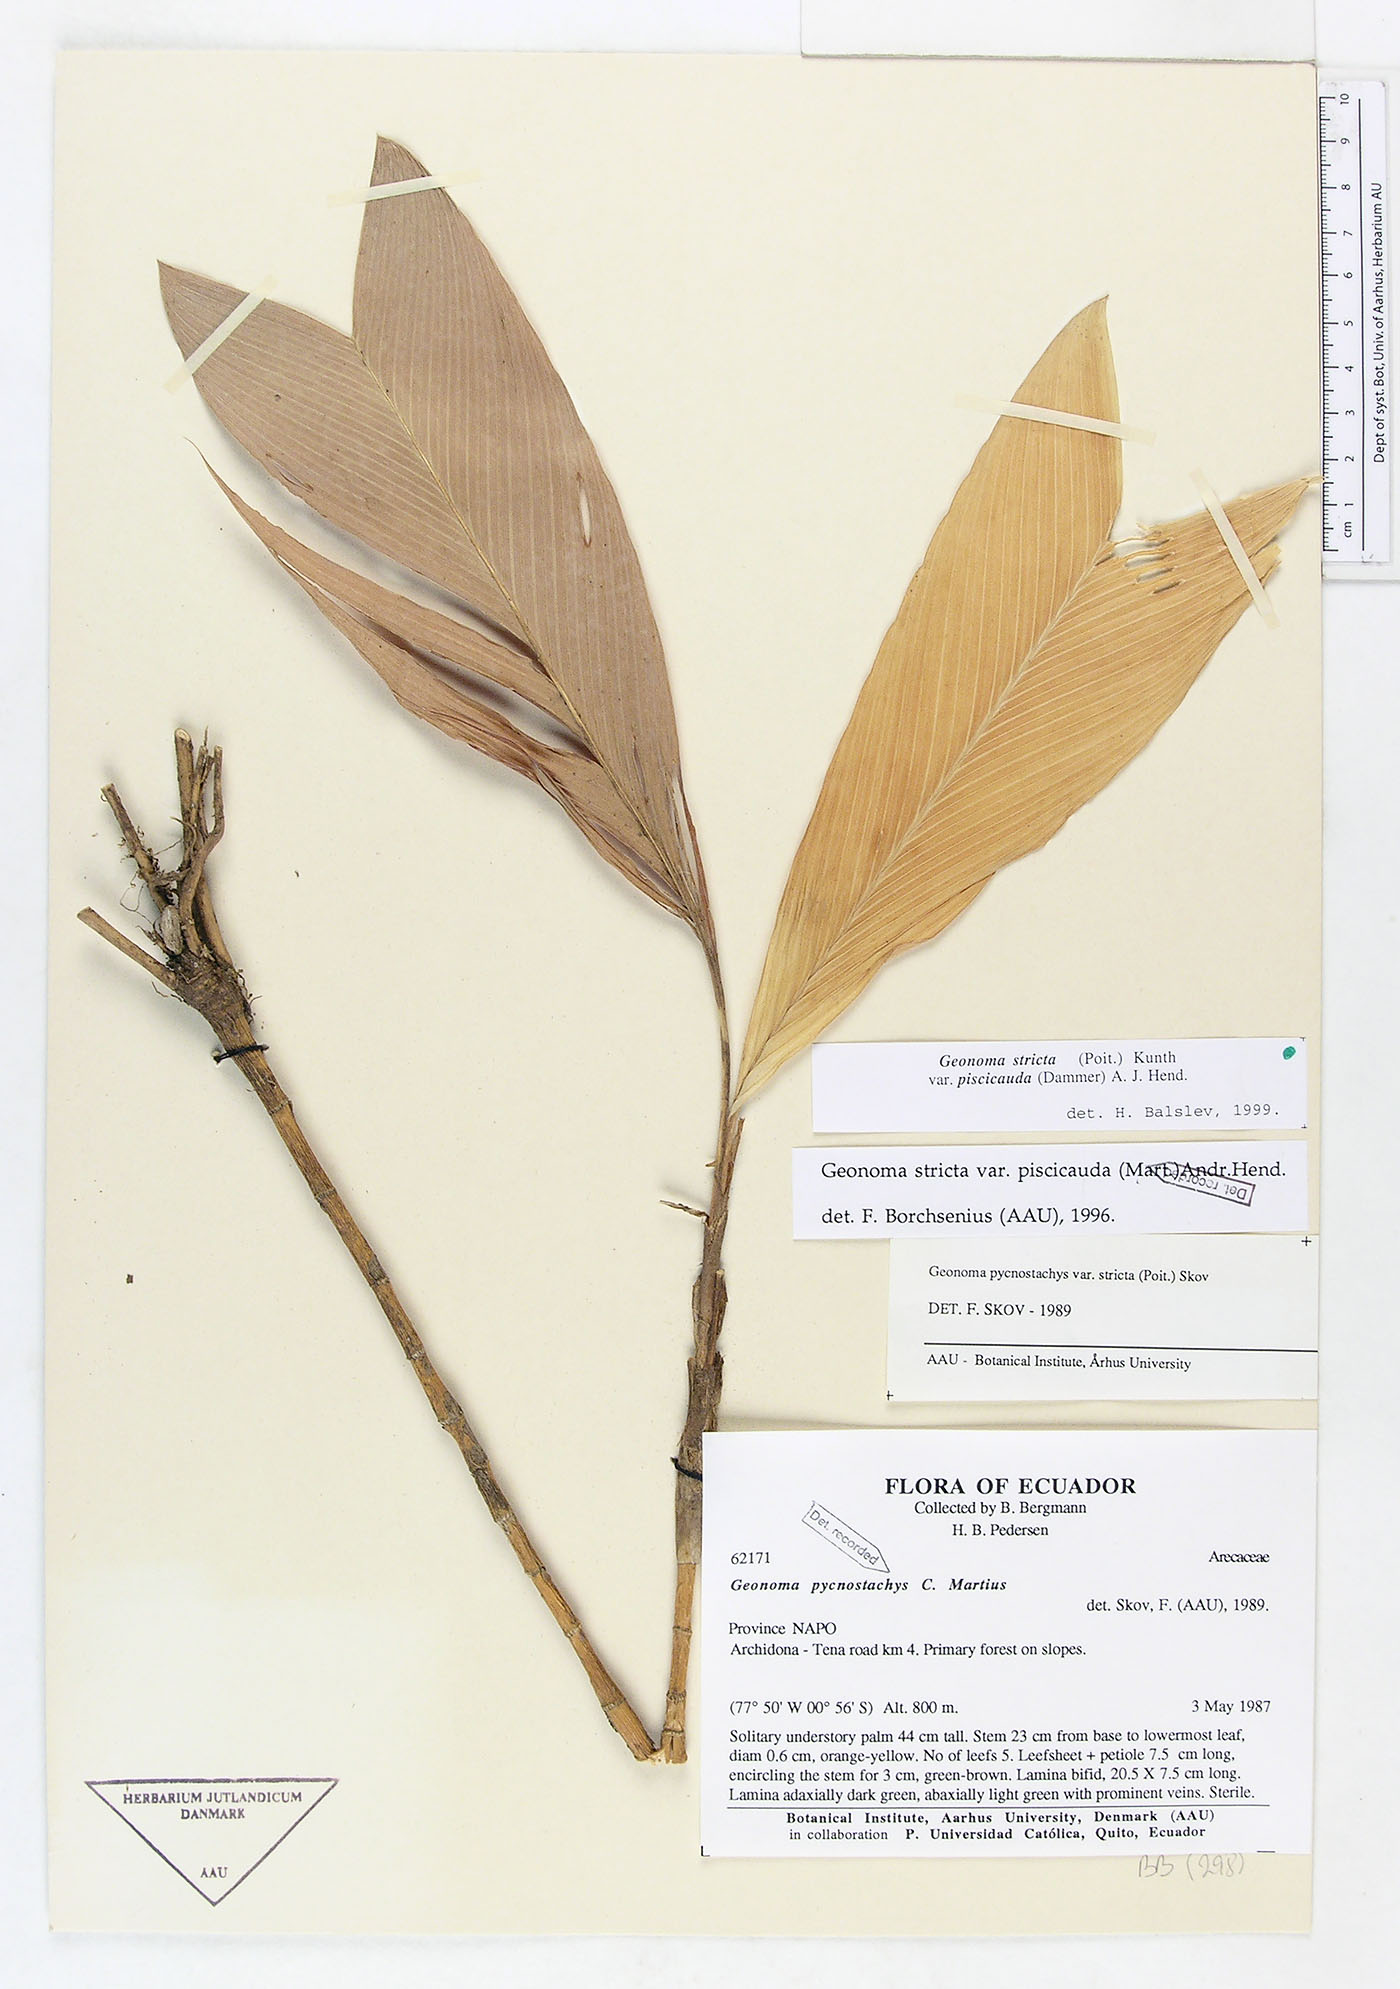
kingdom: Plantae
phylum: Tracheophyta
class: Liliopsida
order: Arecales
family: Arecaceae
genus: Geonoma
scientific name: Geonoma stricta
